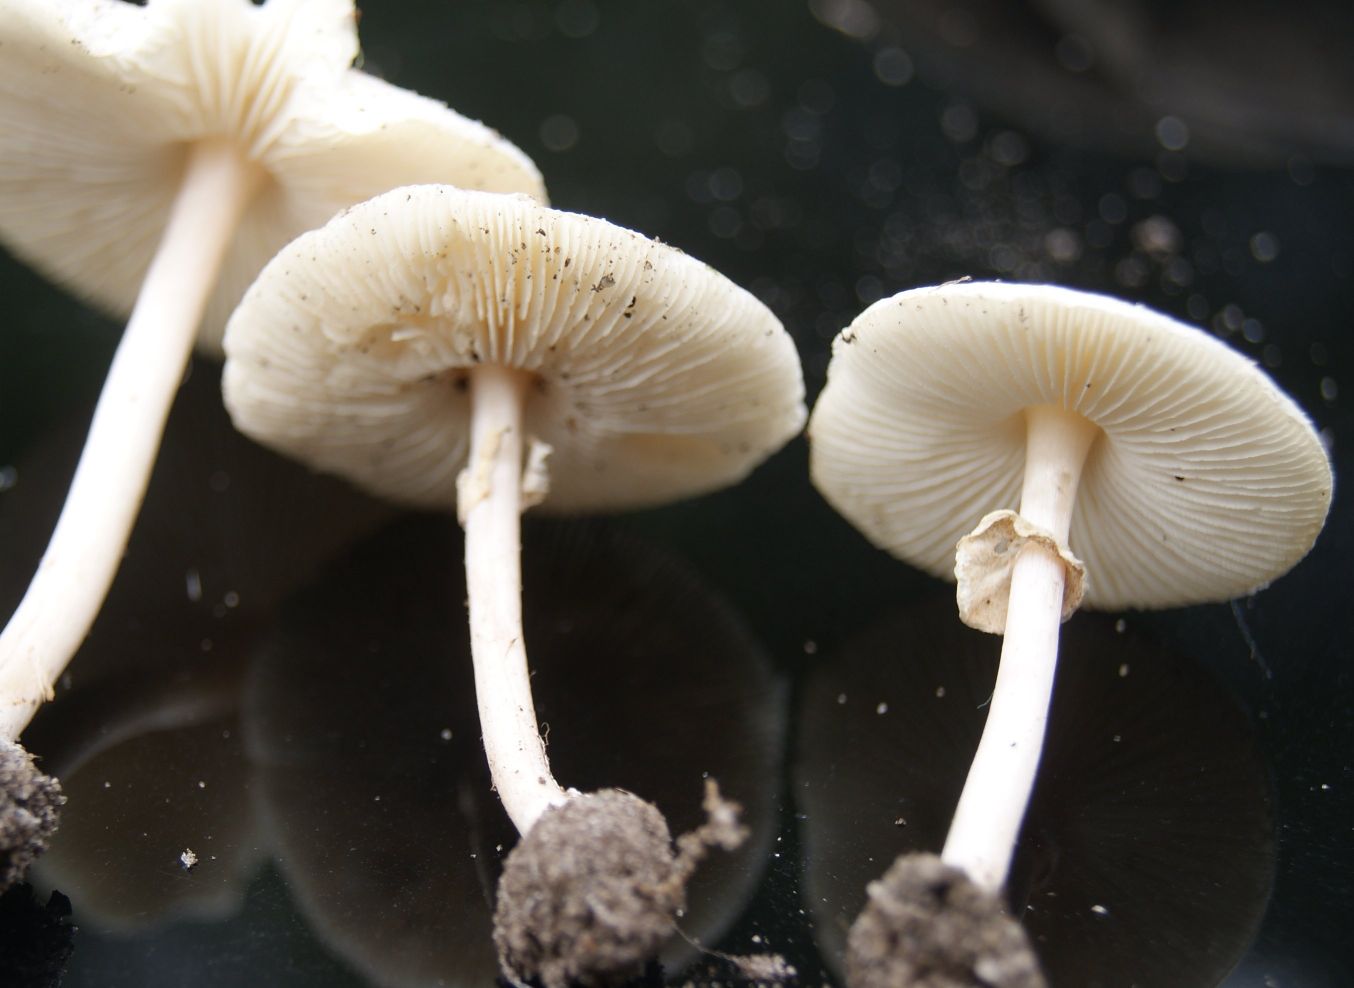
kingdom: Fungi
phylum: Basidiomycota
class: Agaricomycetes
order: Agaricales
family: Agaricaceae
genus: Lepiota
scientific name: Lepiota cristata
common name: stinkende parasolhat
